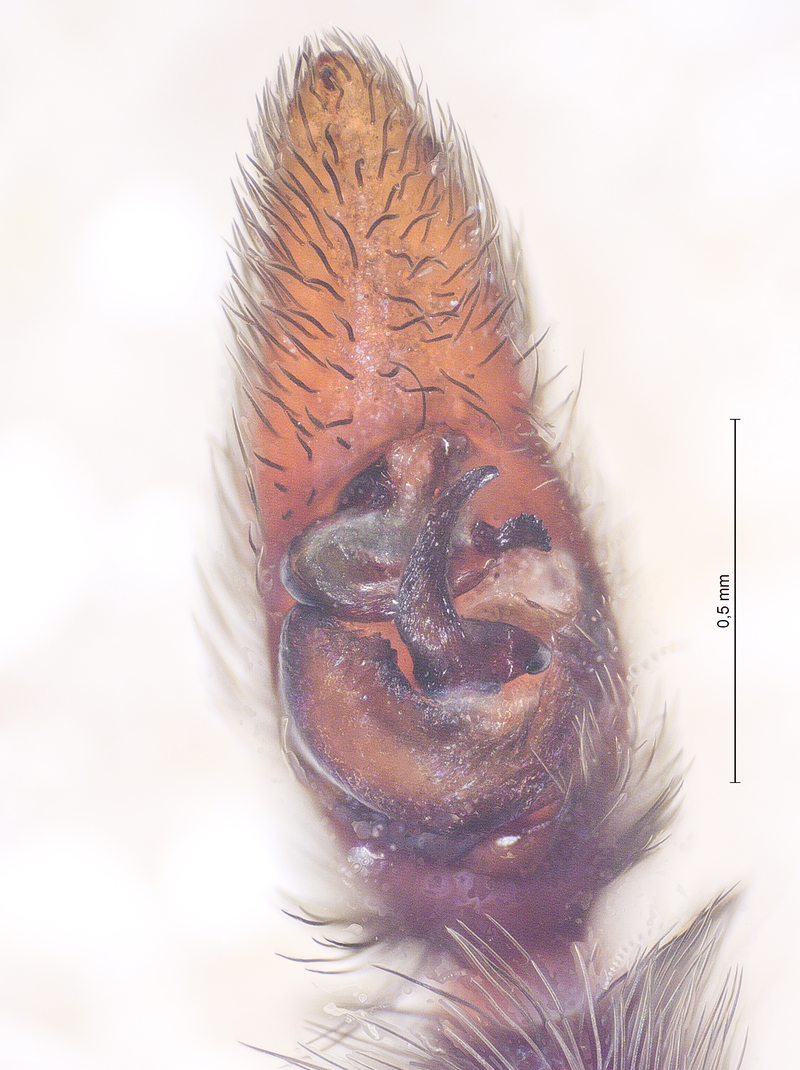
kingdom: Animalia
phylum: Arthropoda
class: Arachnida
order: Araneae
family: Lycosidae
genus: Pardosa
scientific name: Pardosa saltans
